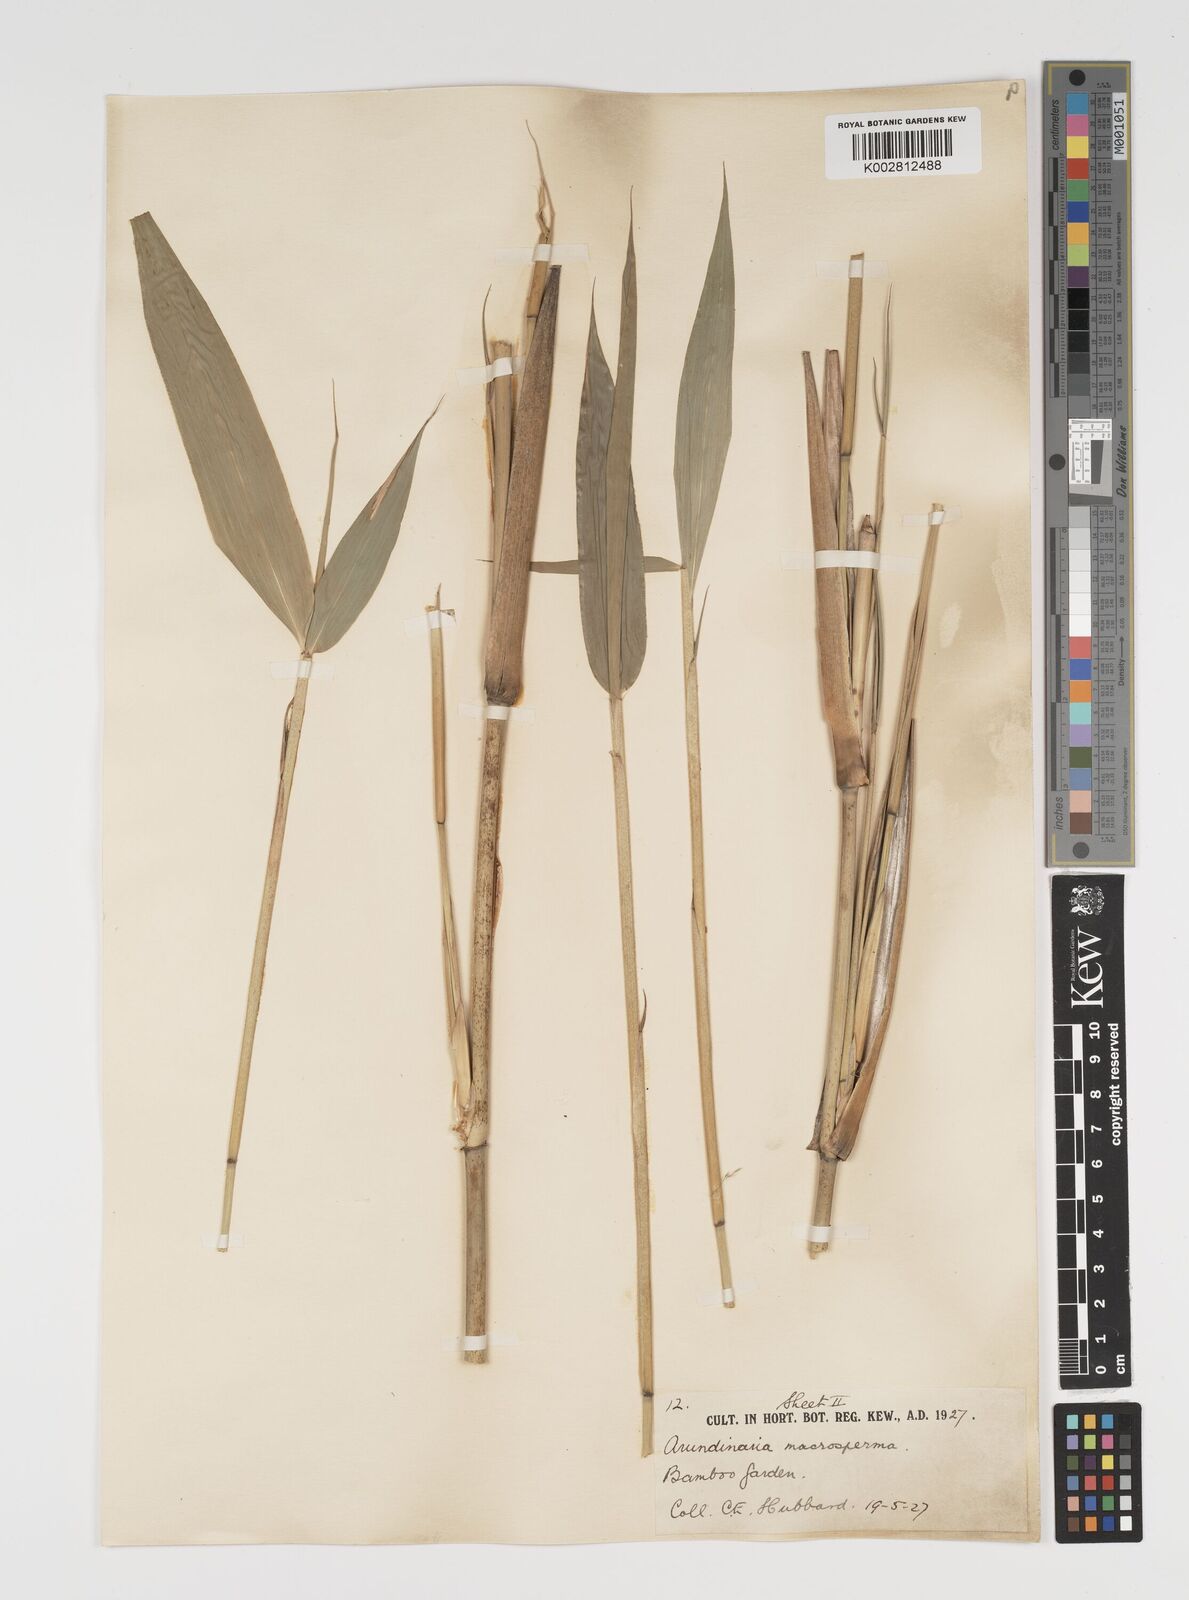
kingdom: Plantae
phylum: Tracheophyta
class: Liliopsida
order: Poales
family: Poaceae
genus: Pseudosasa
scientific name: Pseudosasa amabilis
